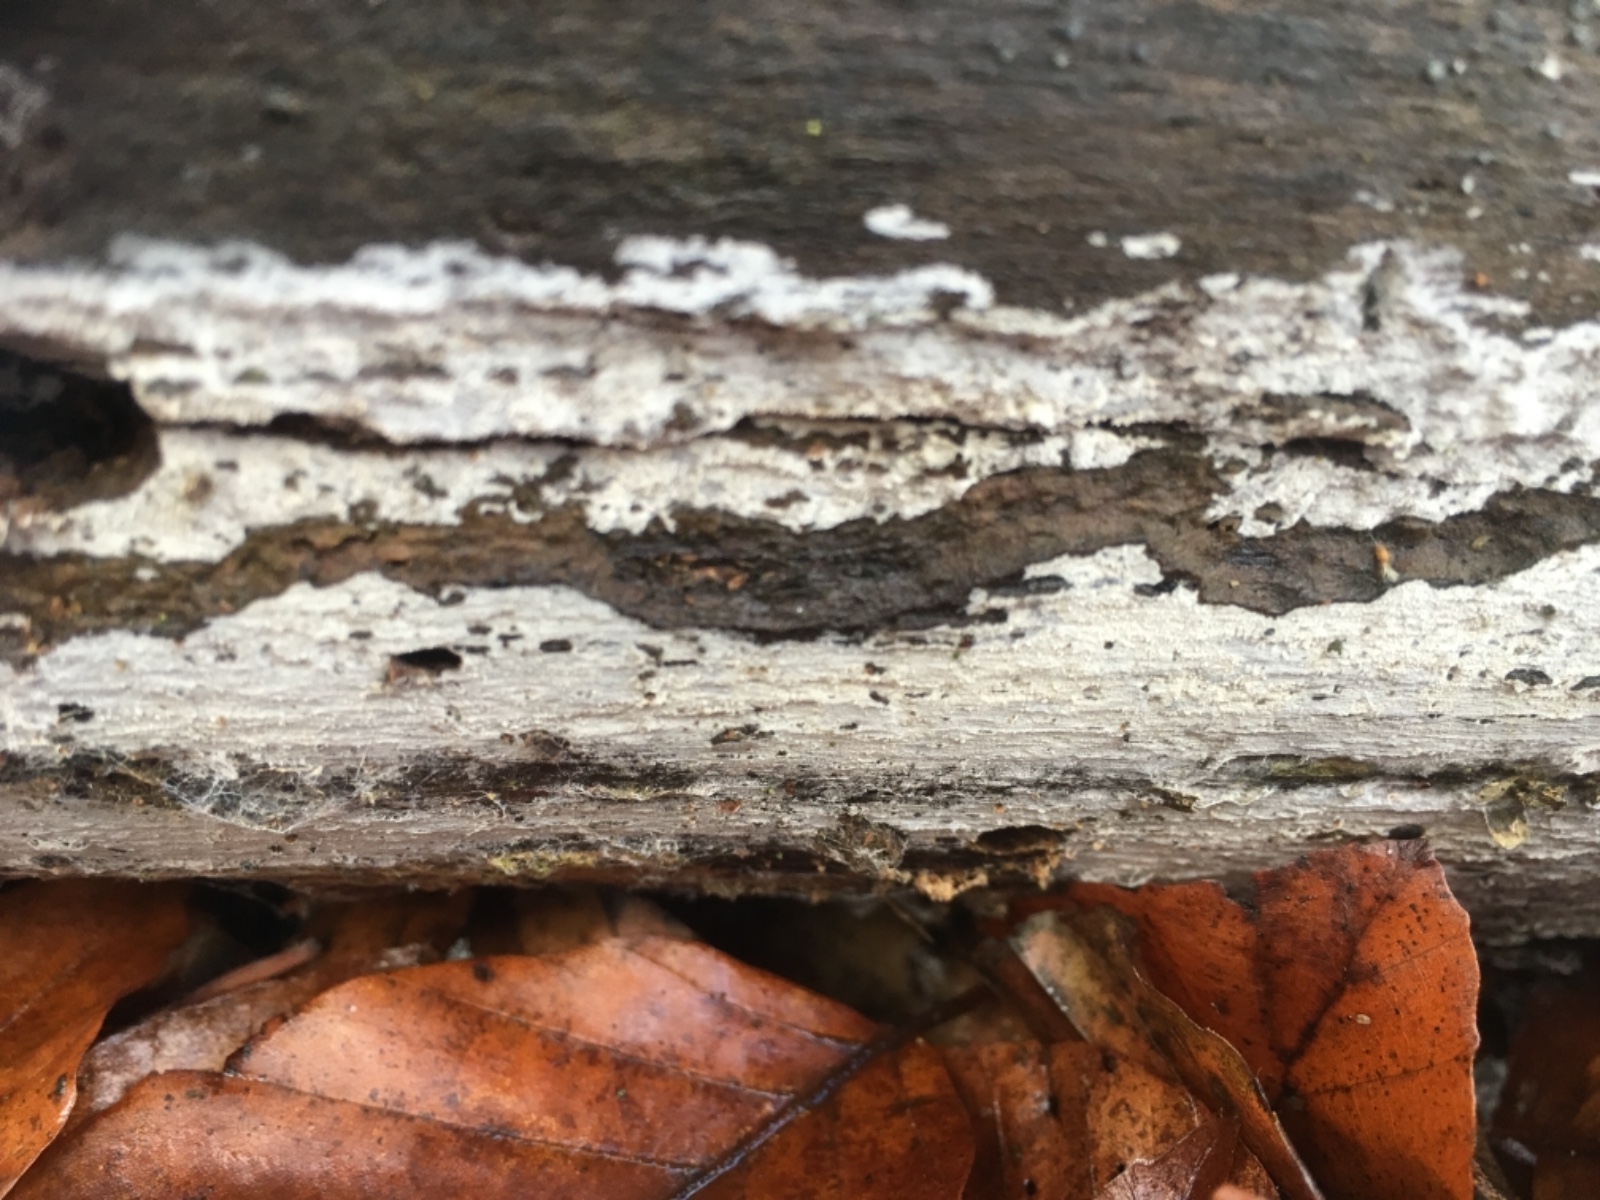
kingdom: Fungi
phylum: Basidiomycota
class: Agaricomycetes
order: Corticiales
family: Corticiaceae
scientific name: Corticiaceae
